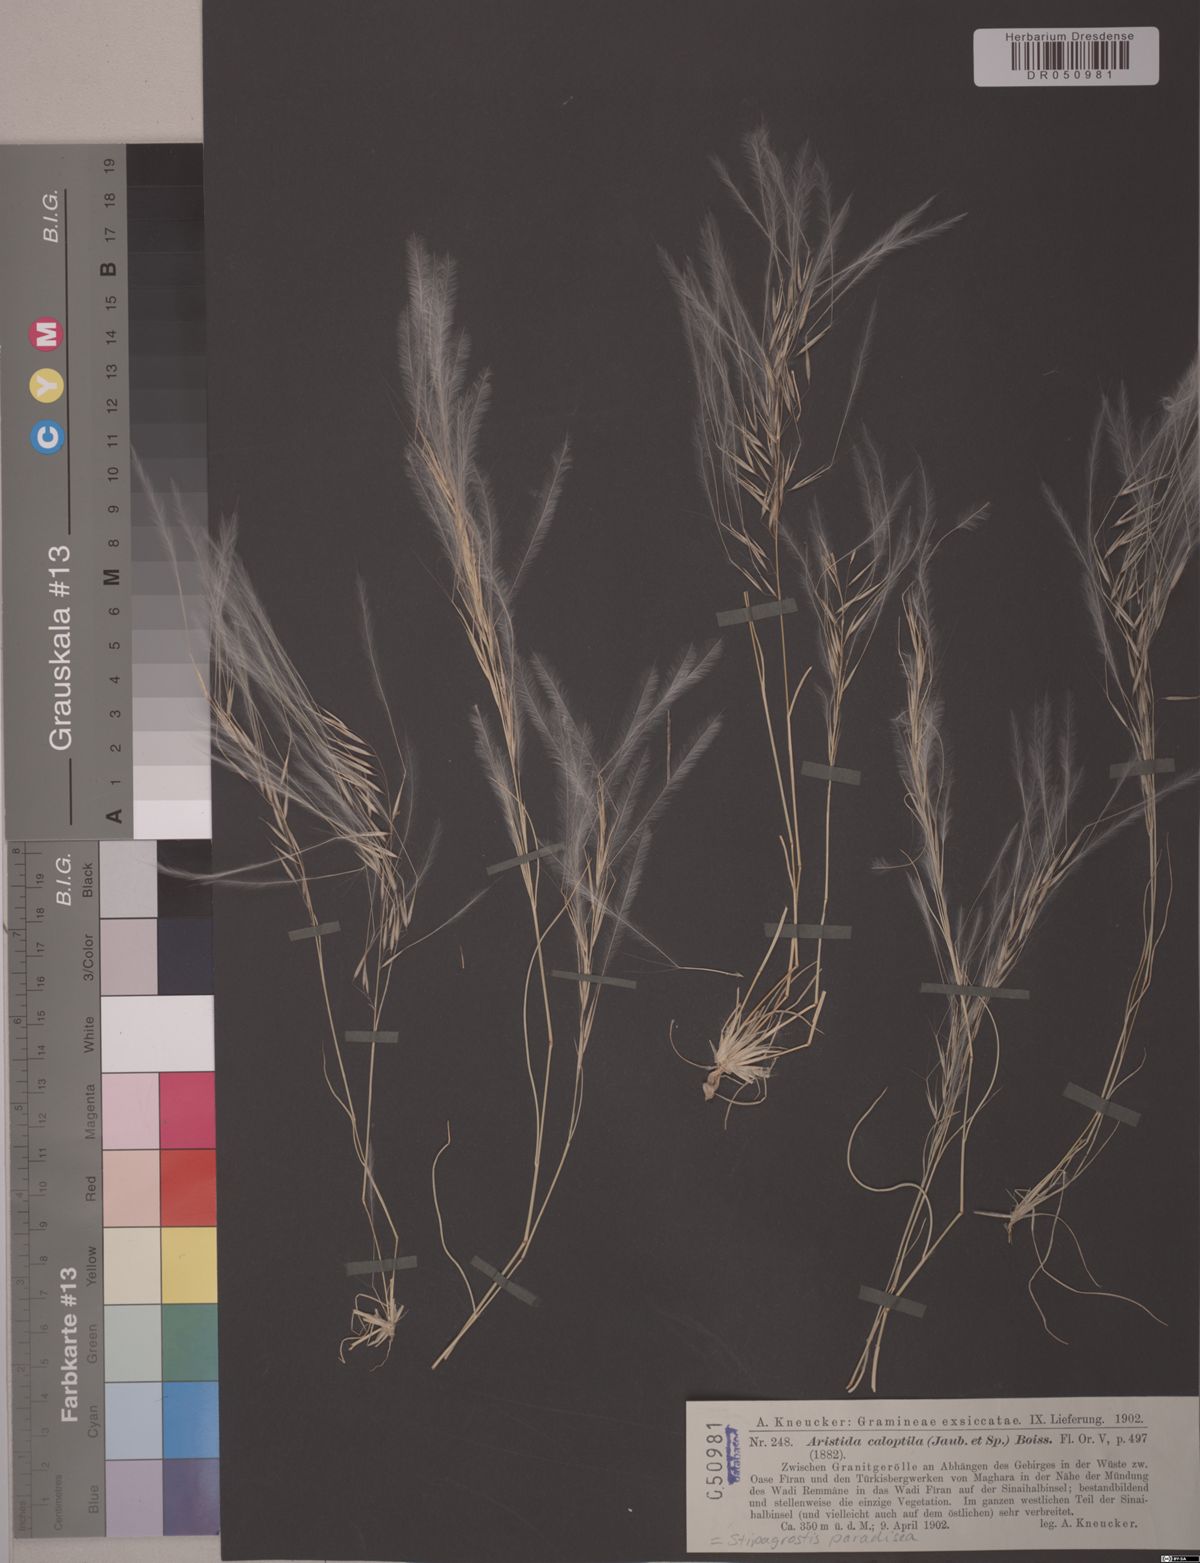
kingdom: Plantae
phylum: Tracheophyta
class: Liliopsida
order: Poales
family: Poaceae
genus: Stipagrostis
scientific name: Stipagrostis paradisea
